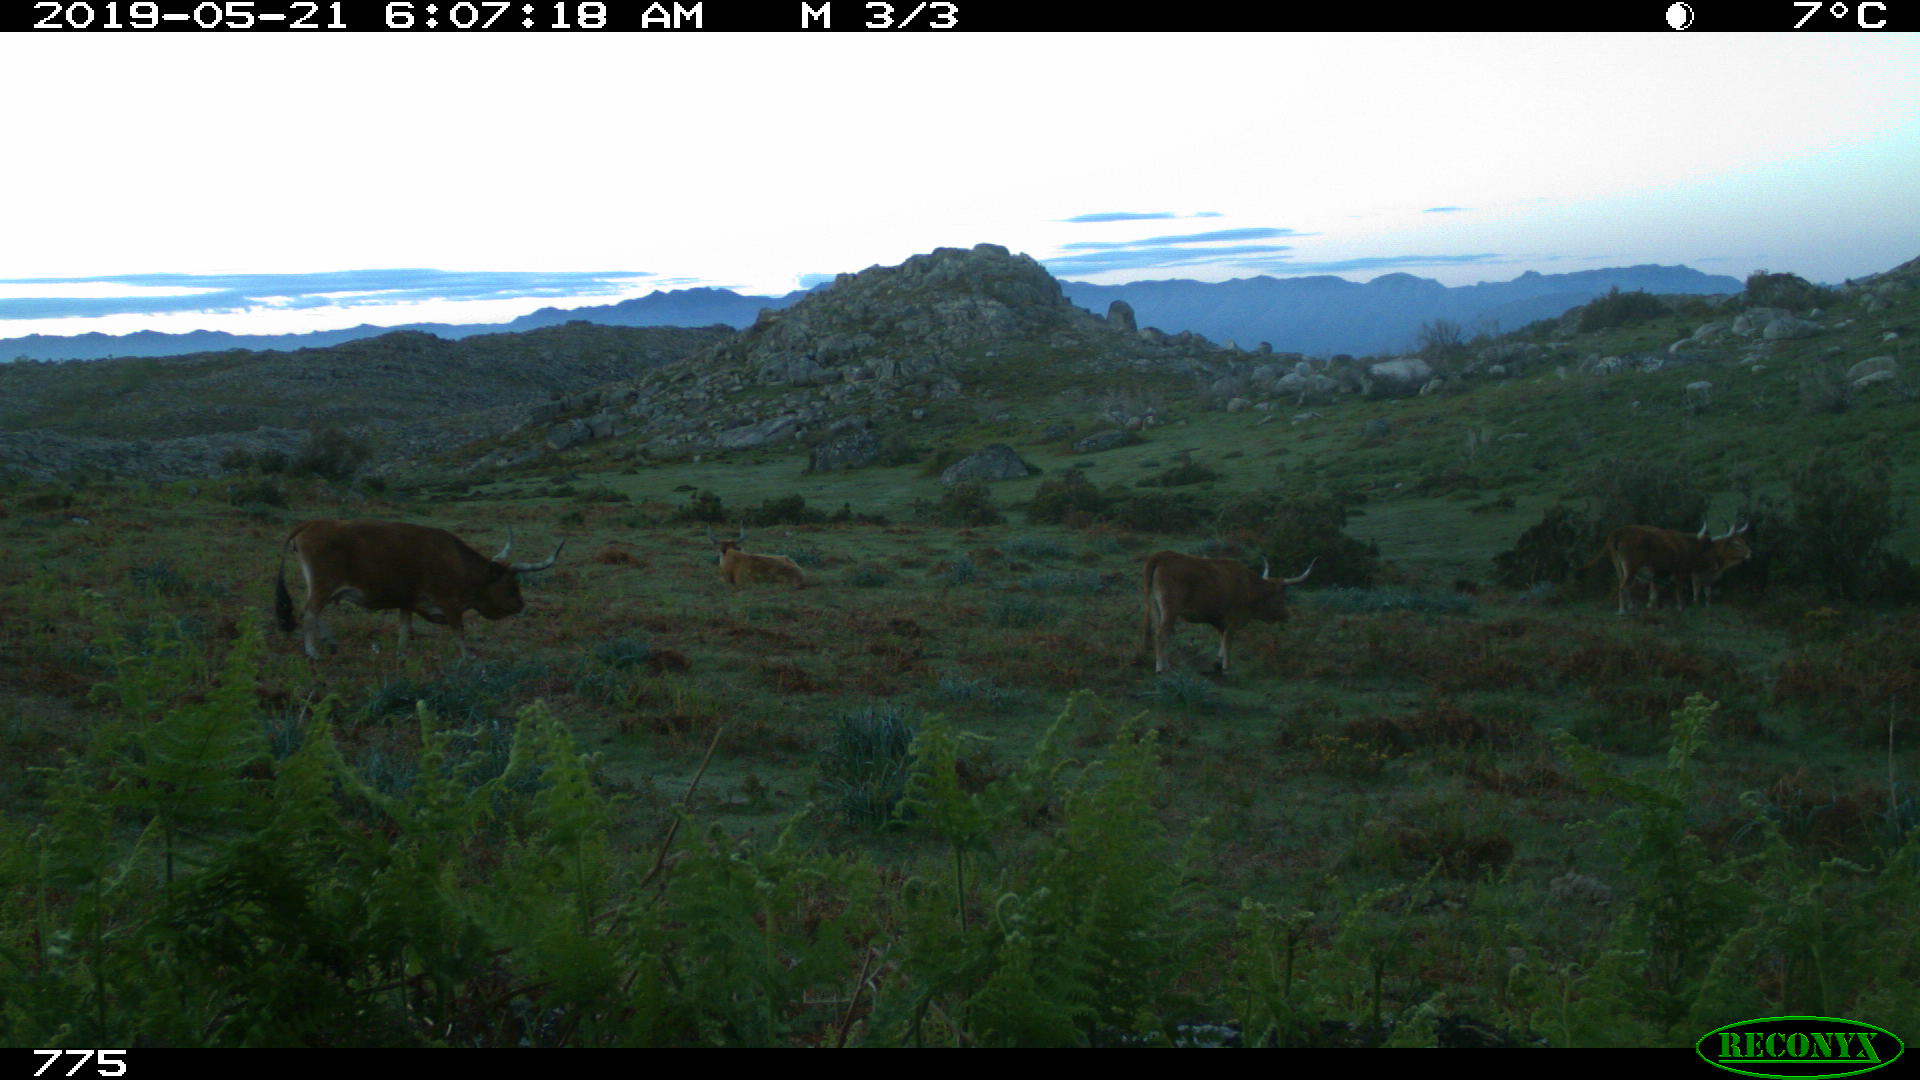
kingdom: Animalia
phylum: Chordata
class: Mammalia
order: Artiodactyla
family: Bovidae
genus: Bos
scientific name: Bos taurus
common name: Domesticated cattle
